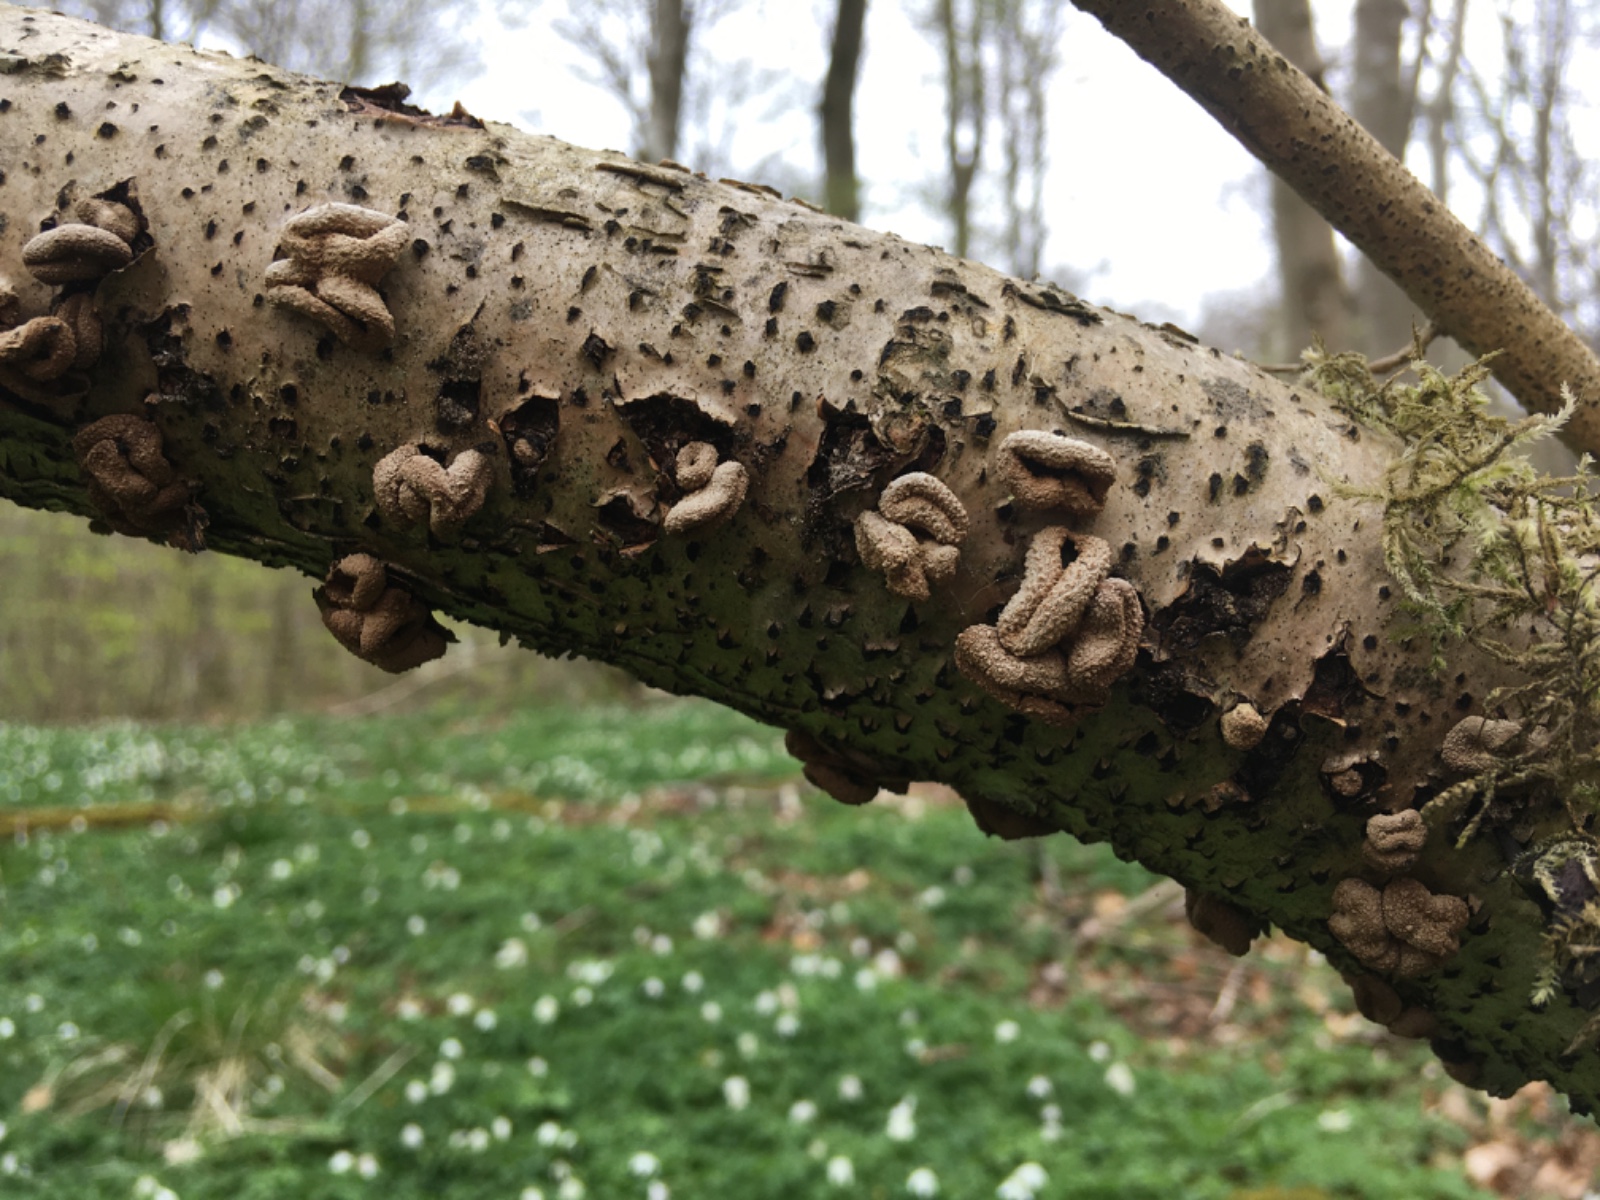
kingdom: Fungi
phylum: Ascomycota
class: Leotiomycetes
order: Helotiales
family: Cenangiaceae
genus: Encoelia
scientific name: Encoelia furfuracea
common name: hassel-læderskive
